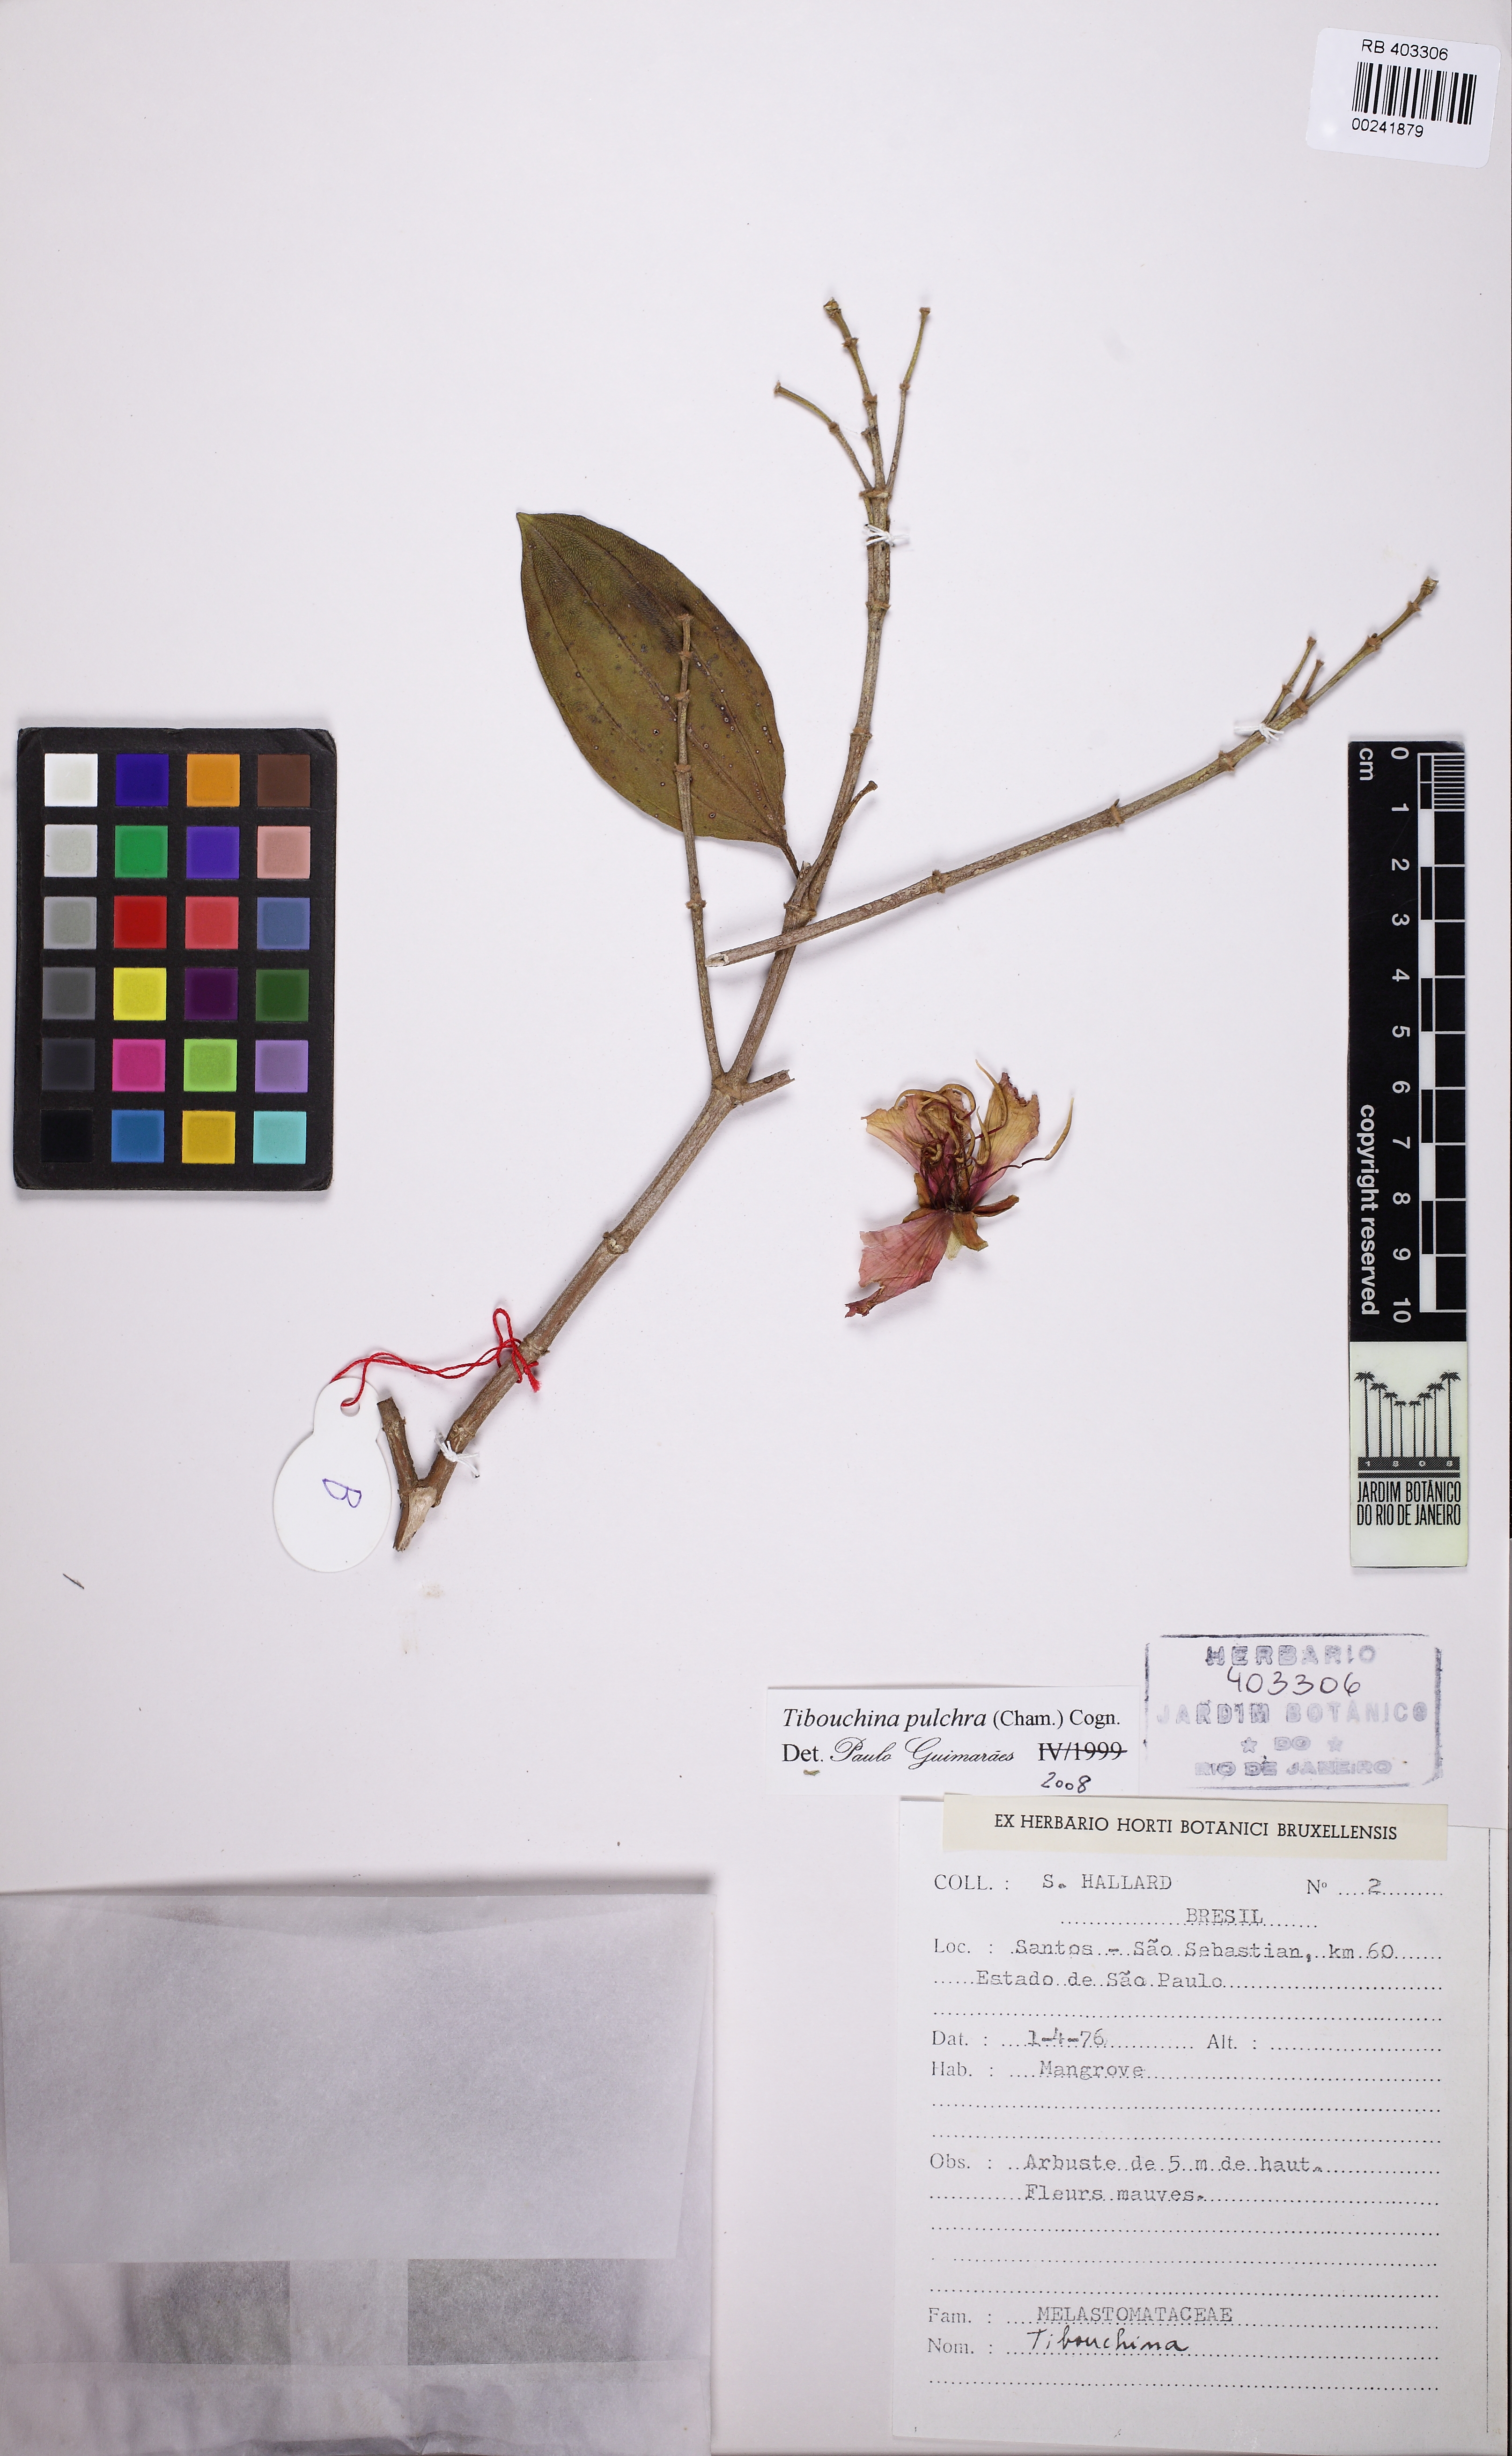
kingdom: Plantae
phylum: Tracheophyta
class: Magnoliopsida
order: Myrtales
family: Melastomataceae
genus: Pleroma
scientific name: Pleroma raddianum
